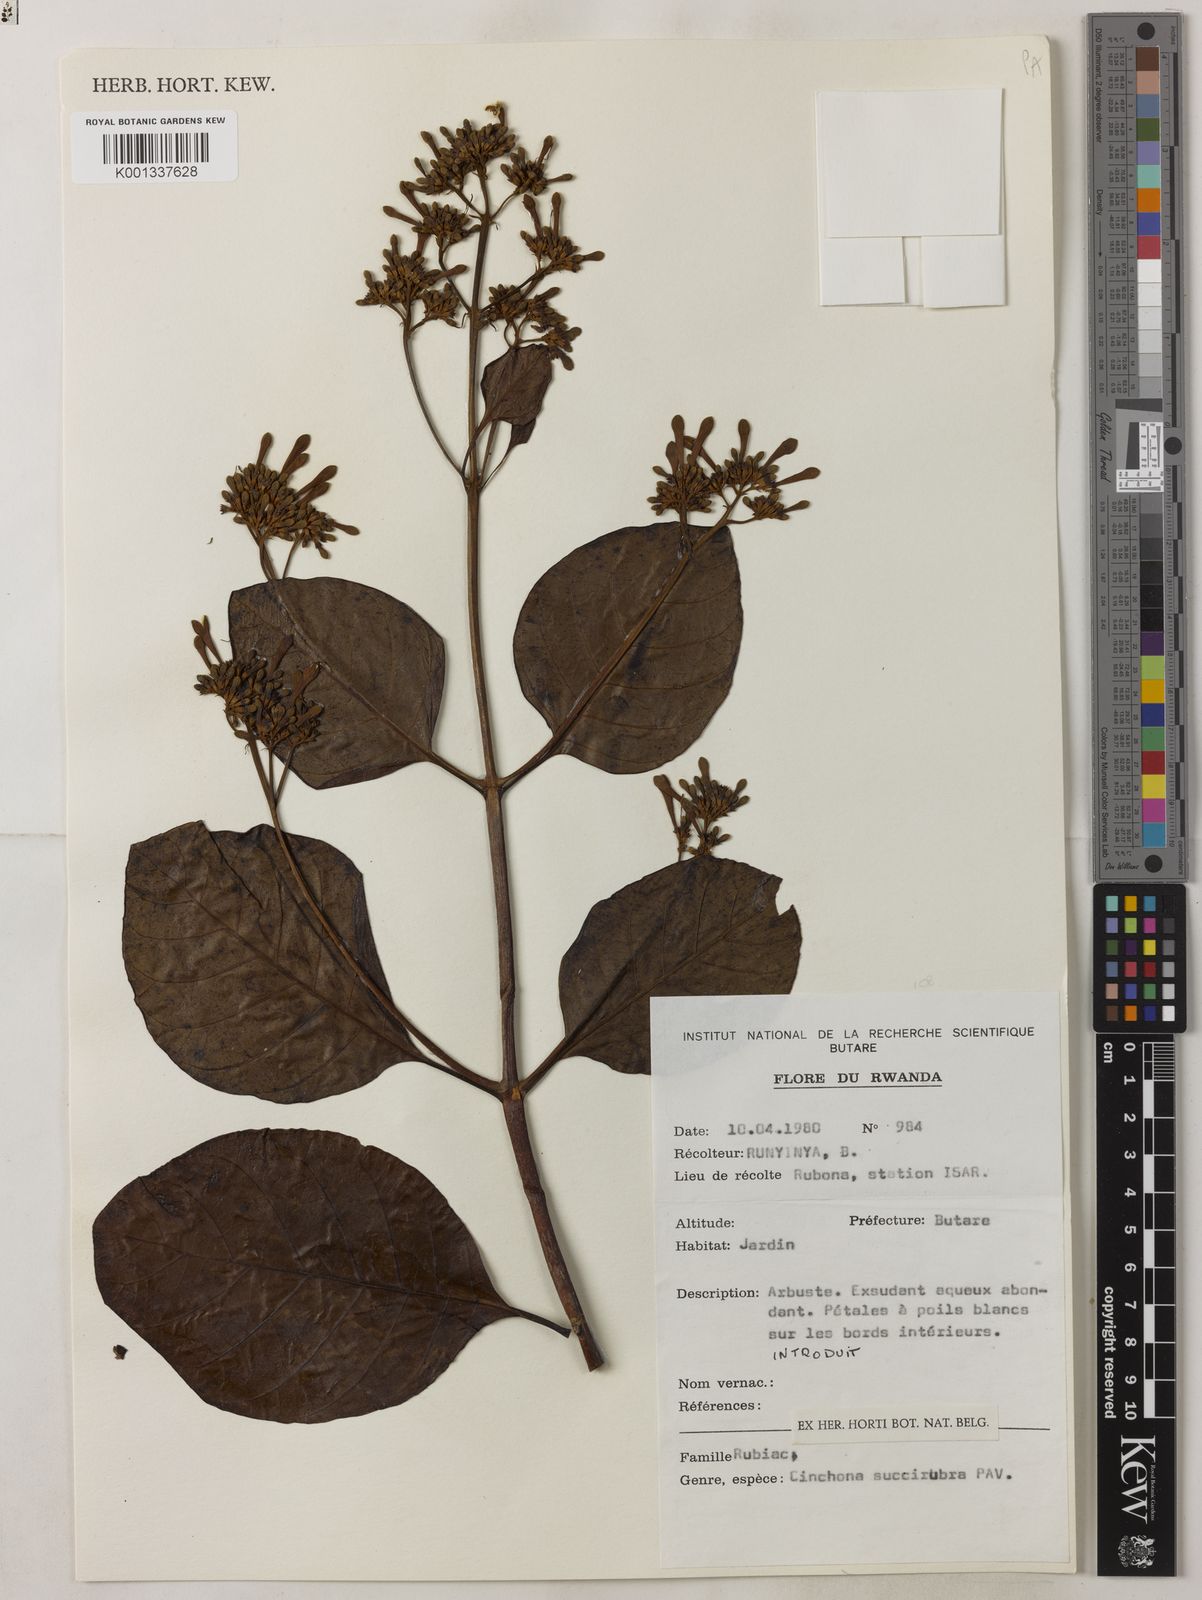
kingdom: Plantae
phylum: Tracheophyta
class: Magnoliopsida
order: Gentianales
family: Rubiaceae
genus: Cinchona
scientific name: Cinchona pubescens
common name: Quinine
